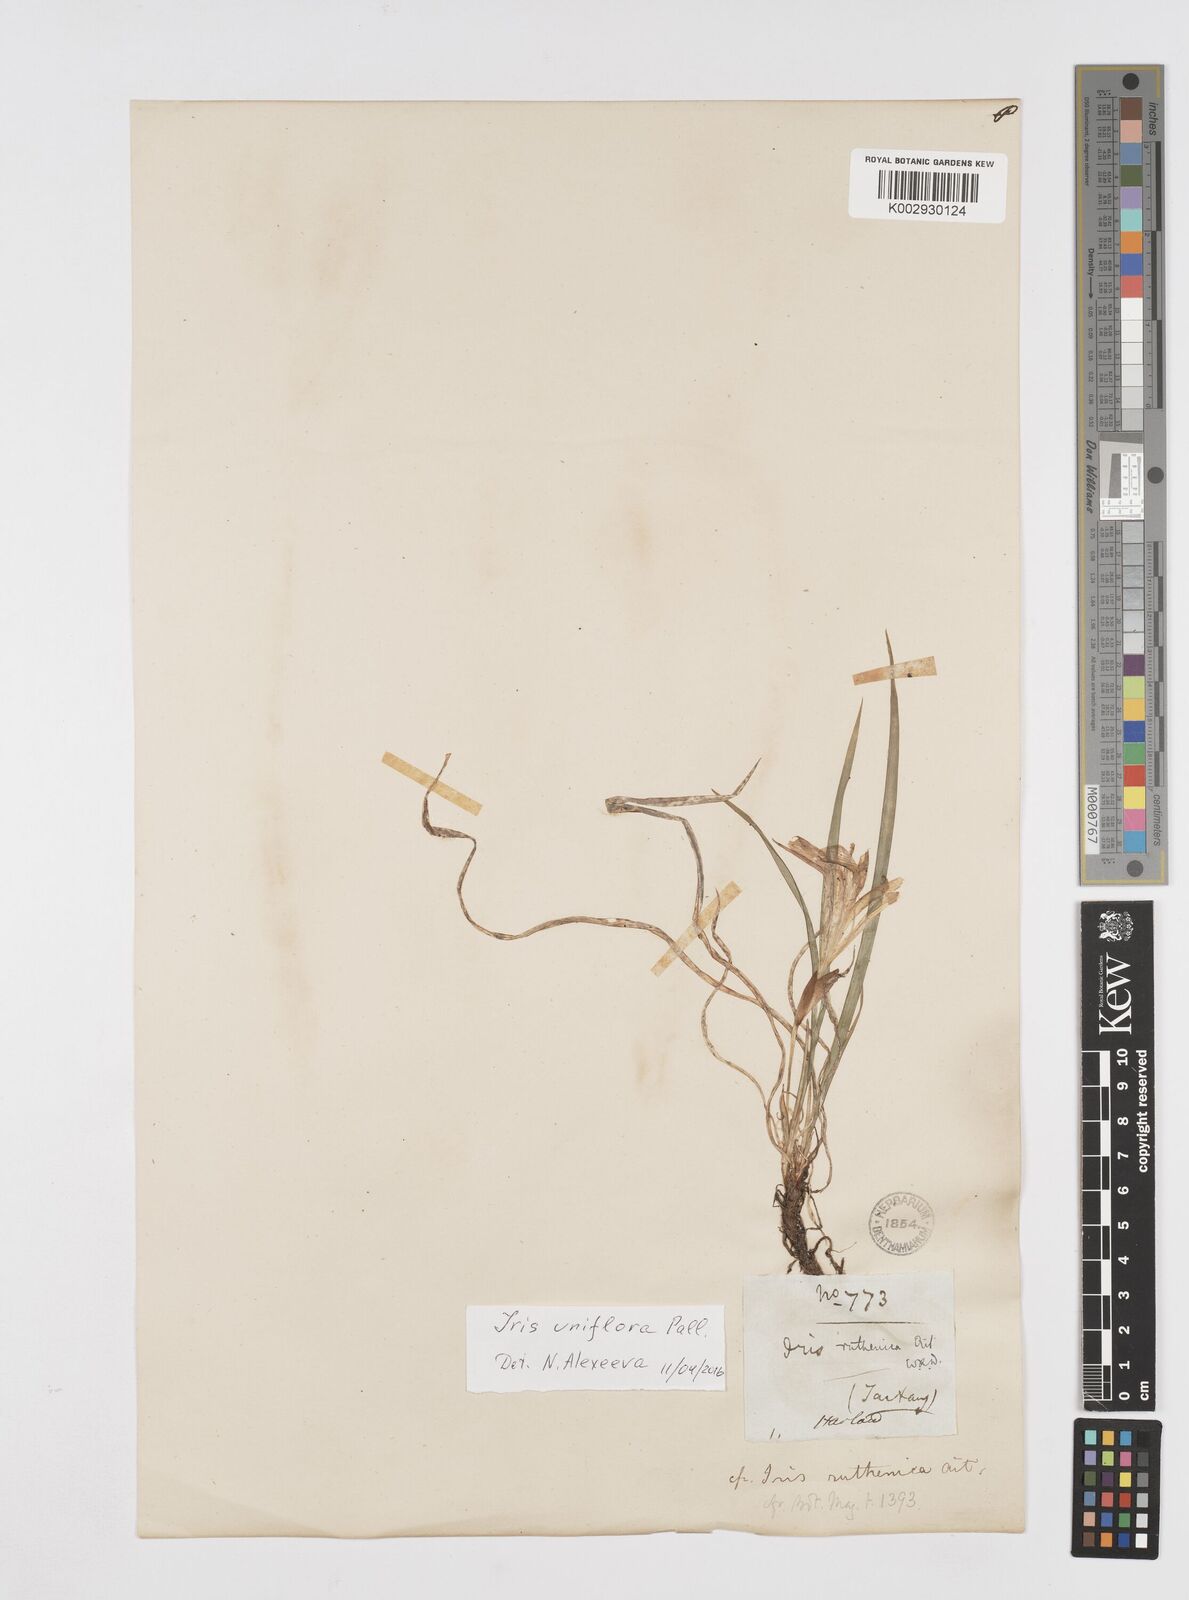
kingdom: Plantae
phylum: Tracheophyta
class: Liliopsida
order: Asparagales
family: Iridaceae
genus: Iris
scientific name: Iris ruthenica
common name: Purple-bract iris
